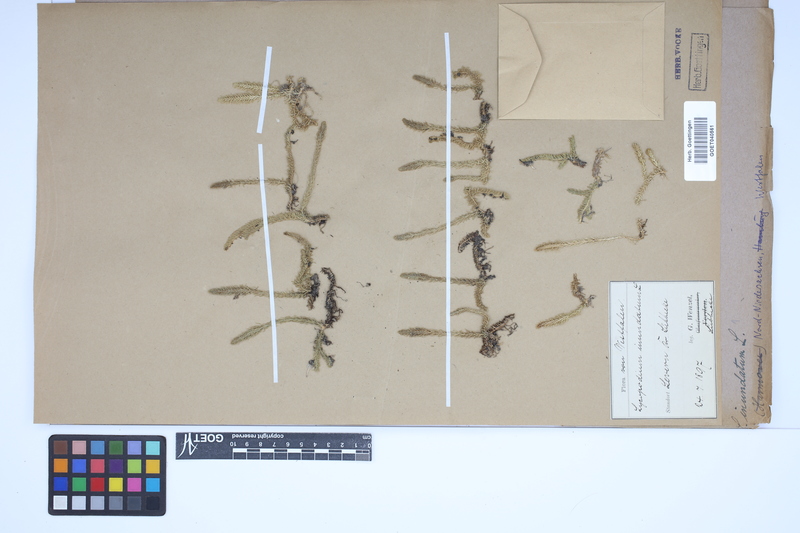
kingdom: Plantae
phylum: Tracheophyta
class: Lycopodiopsida
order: Lycopodiales
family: Lycopodiaceae
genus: Lycopodiella
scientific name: Lycopodiella inundata
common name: Marsh clubmoss
